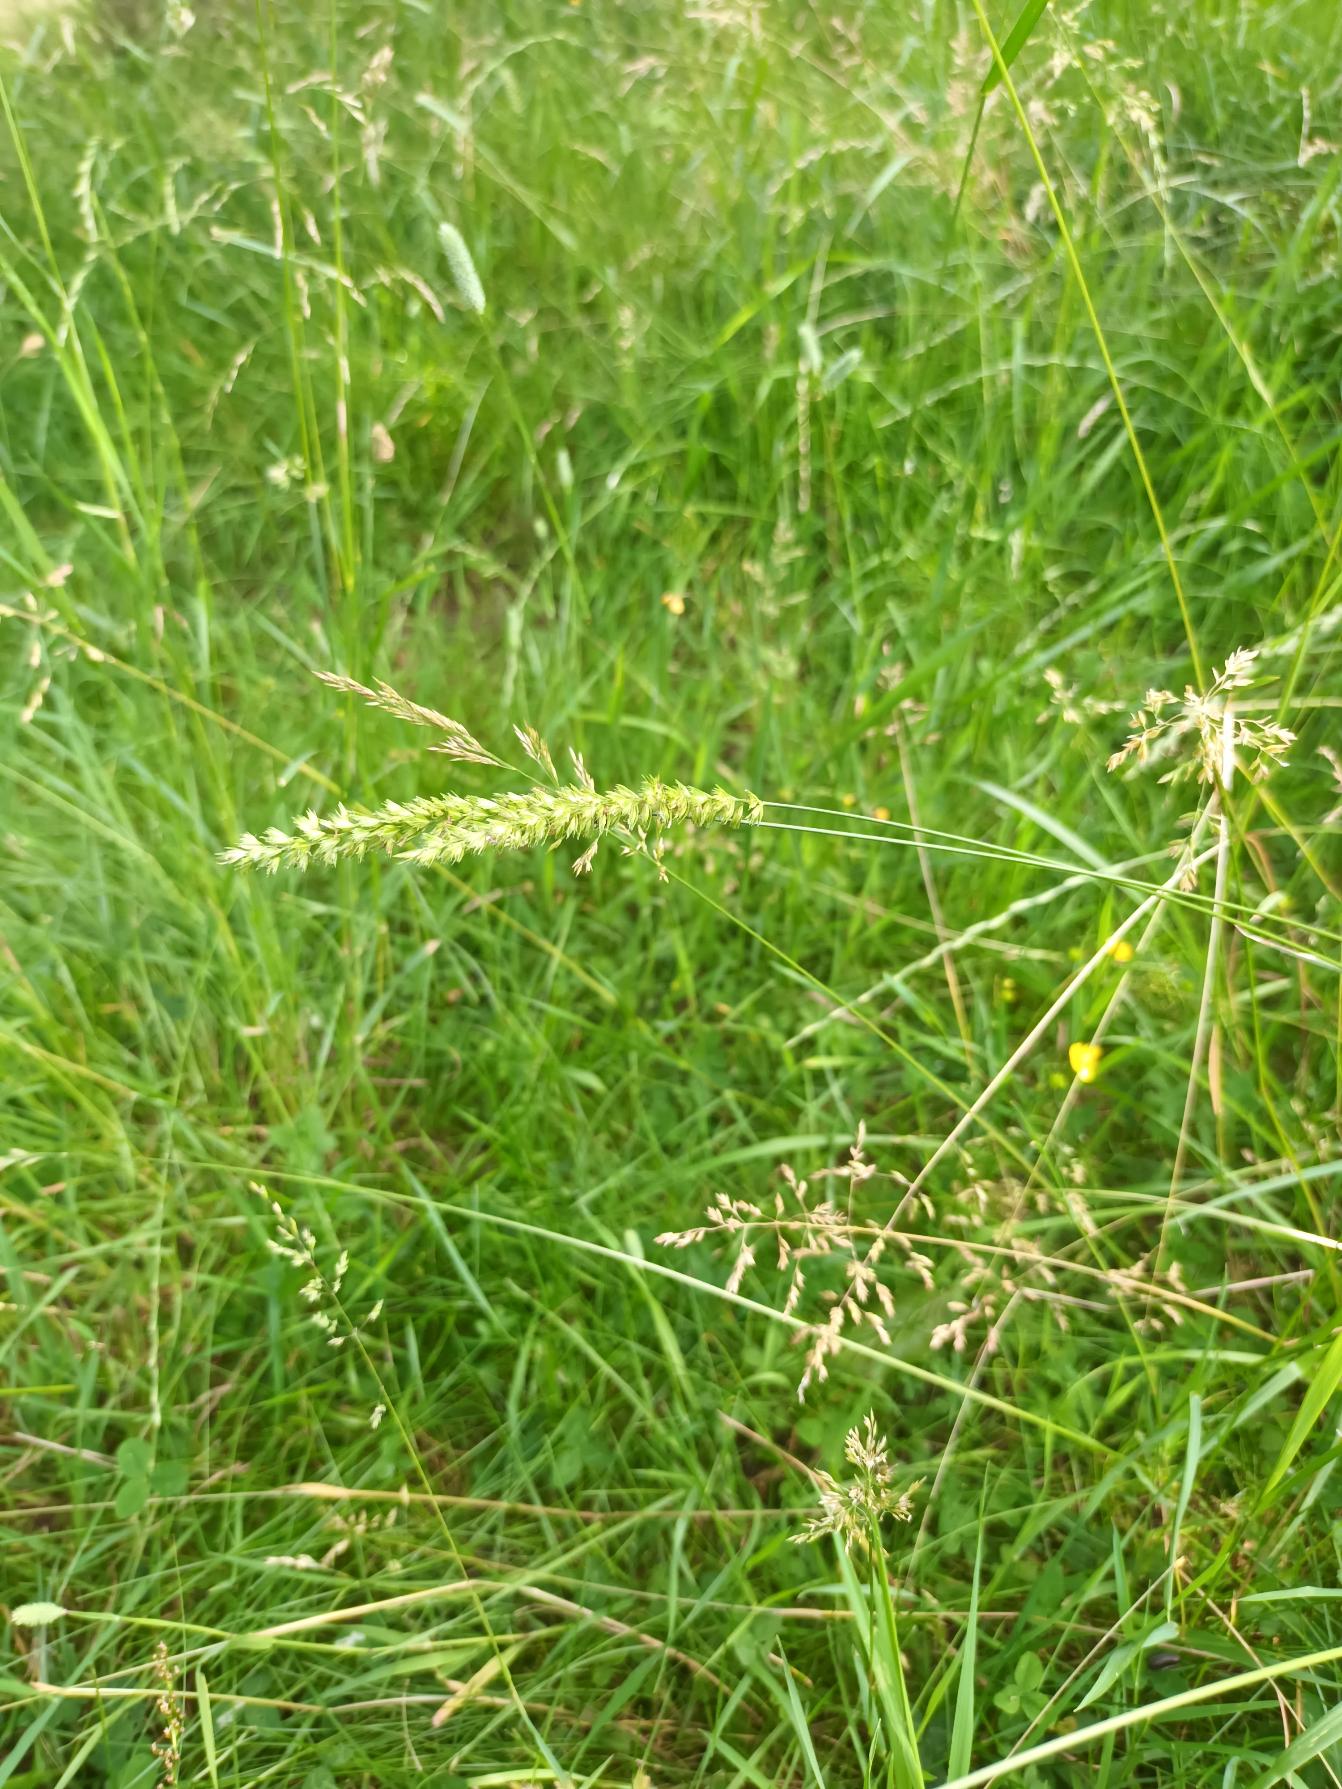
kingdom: Plantae
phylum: Tracheophyta
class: Liliopsida
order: Poales
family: Poaceae
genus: Cynosurus
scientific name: Cynosurus cristatus
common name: Kamgræs
